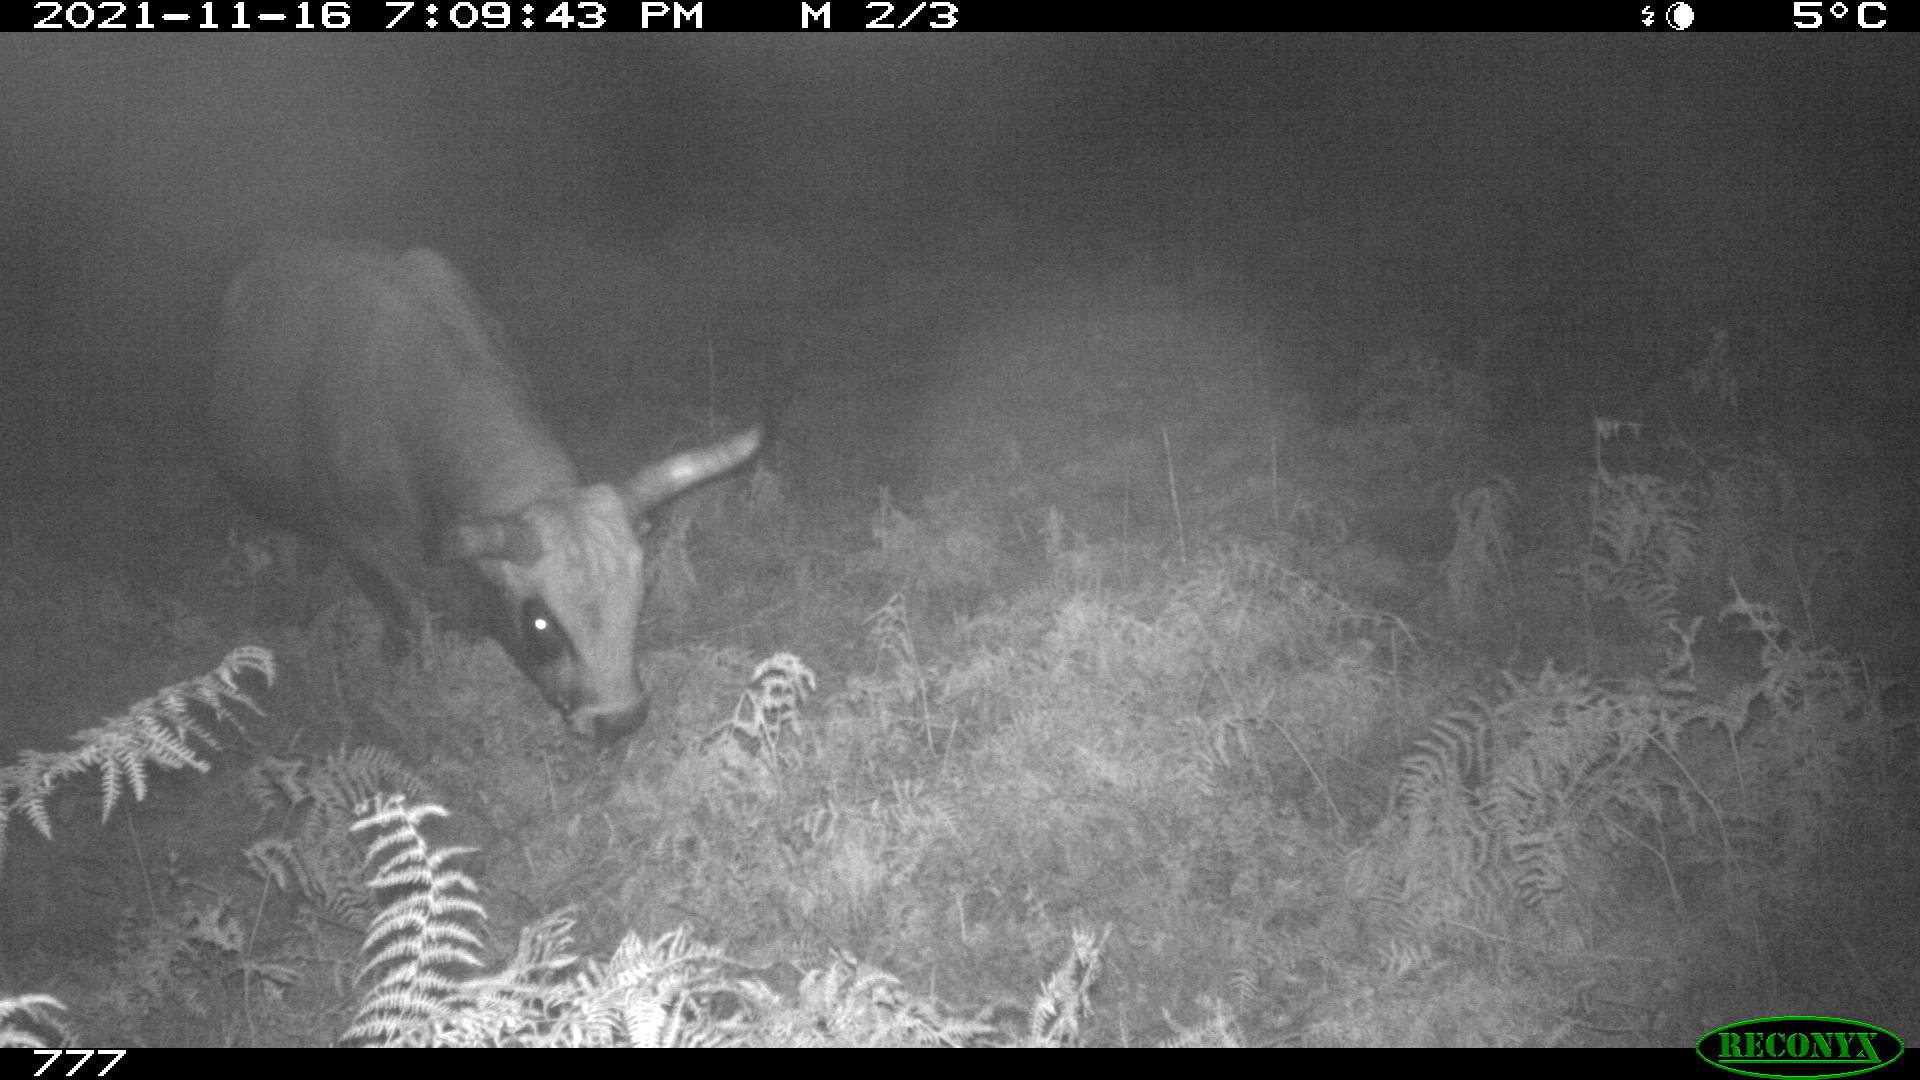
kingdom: Animalia
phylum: Chordata
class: Mammalia
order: Artiodactyla
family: Bovidae
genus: Bos
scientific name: Bos taurus
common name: Domesticated cattle
